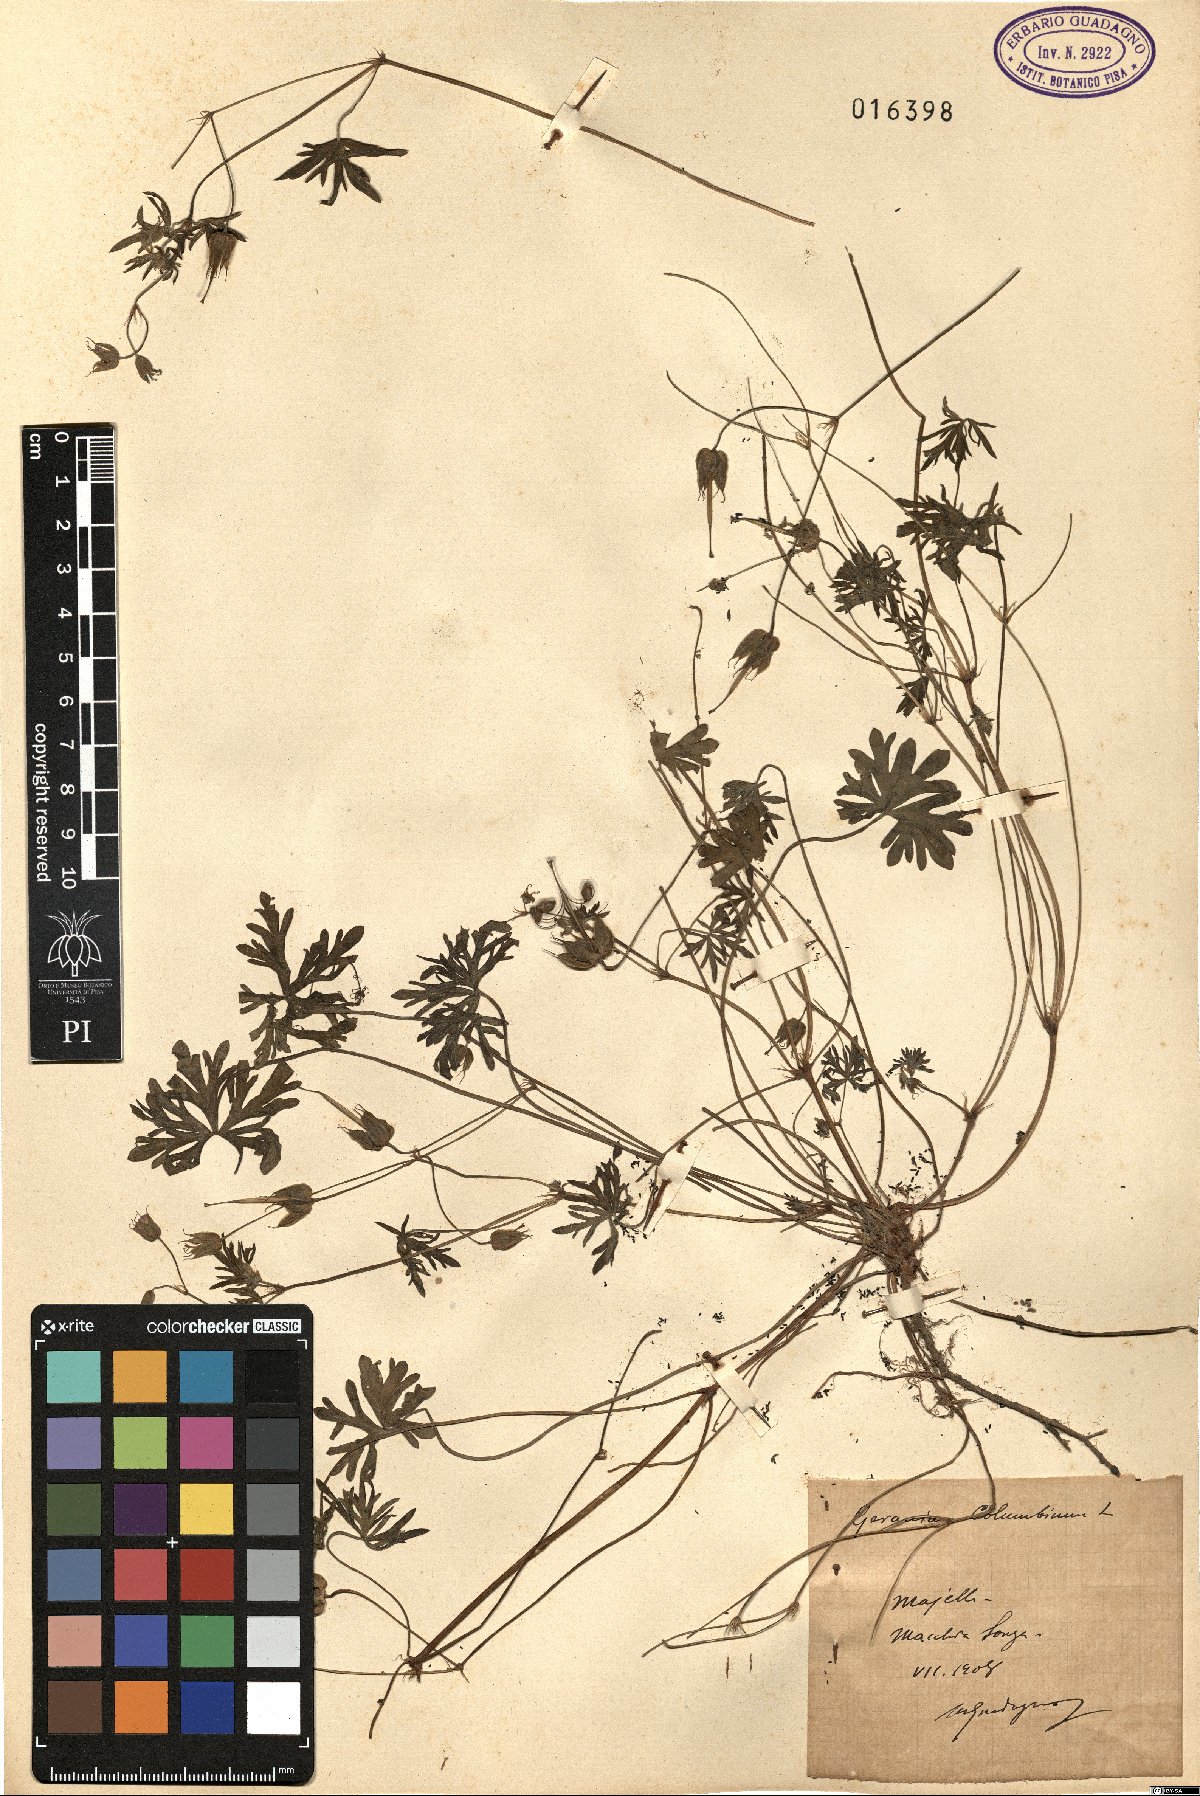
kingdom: Plantae
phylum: Tracheophyta
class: Magnoliopsida
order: Geraniales
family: Geraniaceae
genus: Geranium
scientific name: Geranium columbinum
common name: Long-stalked crane's-bill
